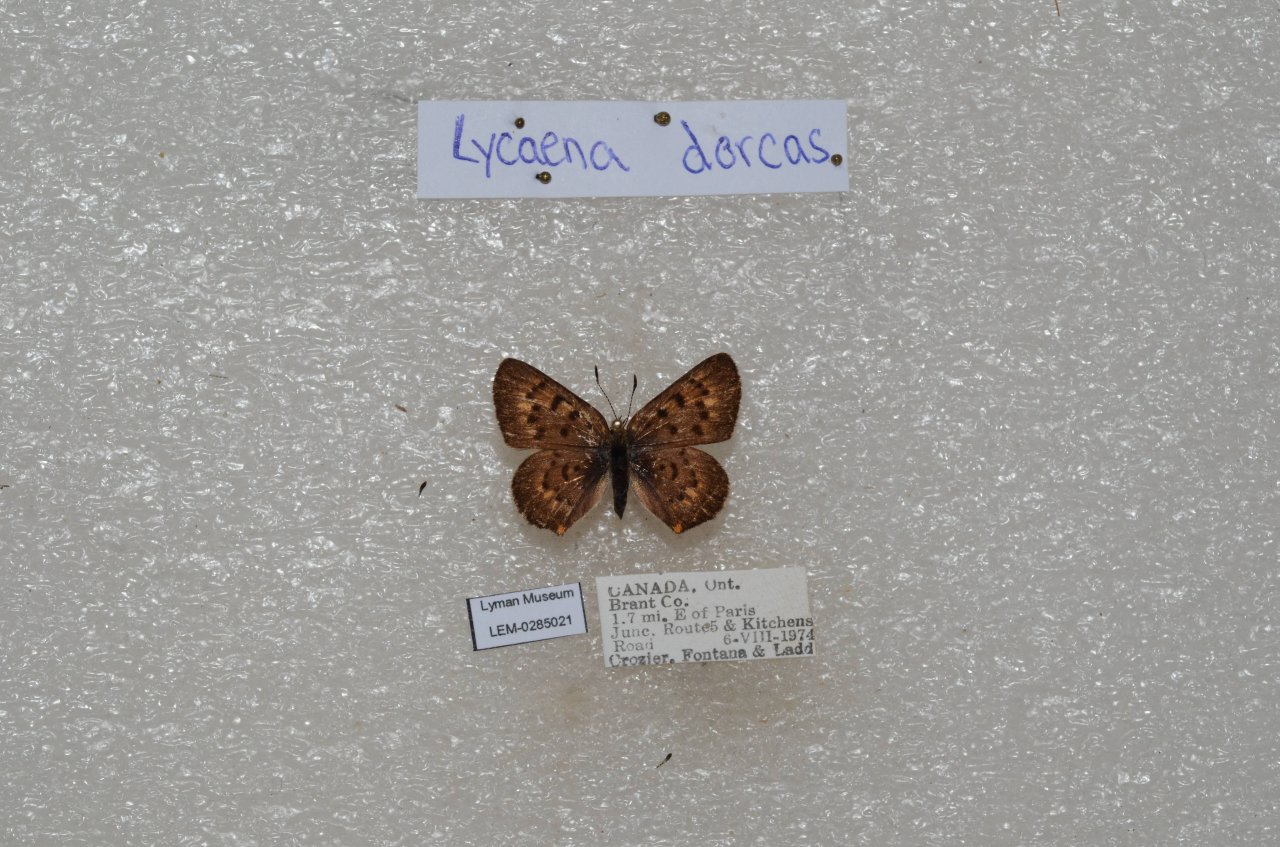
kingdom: Animalia
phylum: Arthropoda
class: Insecta
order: Lepidoptera
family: Lycaenidae
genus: Epidemia
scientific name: Epidemia dorcas
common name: Dorcas Copper
